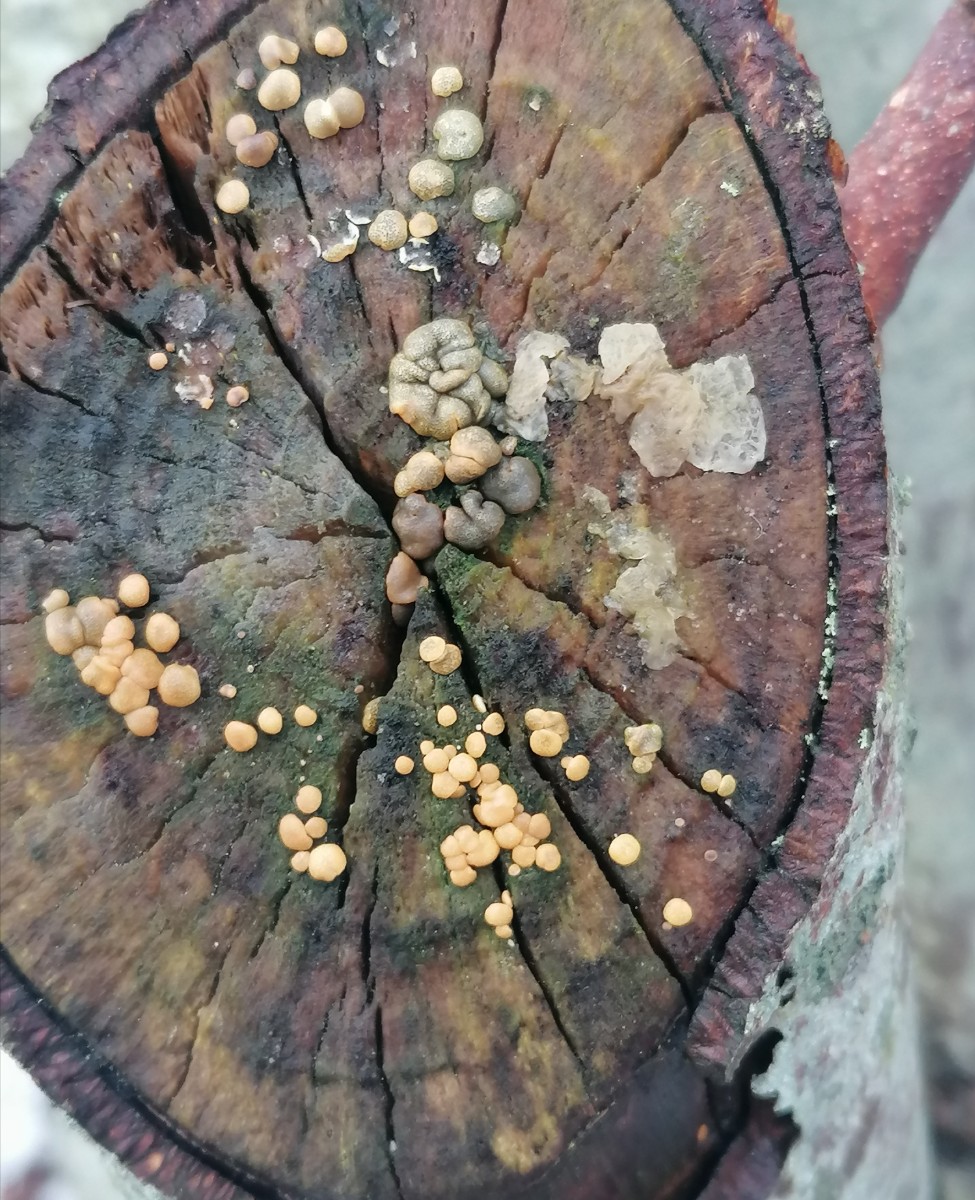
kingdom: Fungi
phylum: Ascomycota
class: Sordariomycetes
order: Hypocreales
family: Hypocreaceae
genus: Trichoderma
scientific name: Trichoderma aureoviride
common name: æggegul kødkerne
